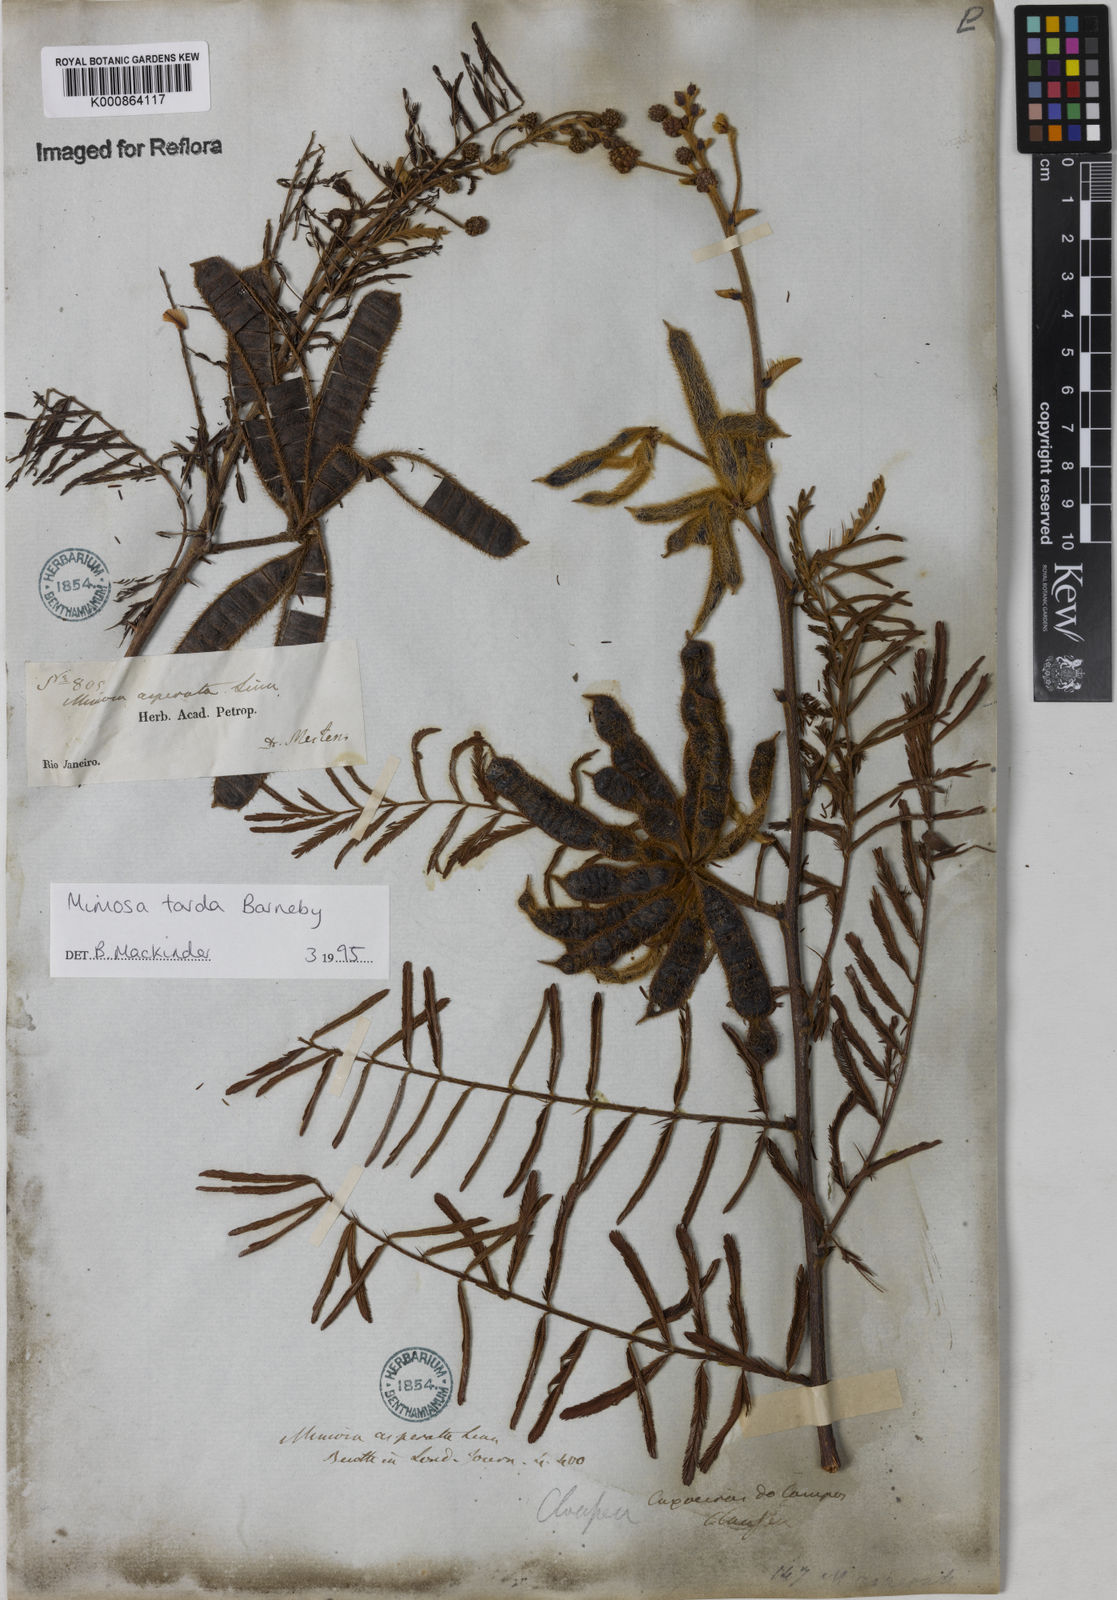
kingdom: Plantae
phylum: Tracheophyta
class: Magnoliopsida
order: Fabales
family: Fabaceae
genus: Mimosa
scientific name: Mimosa tarda
